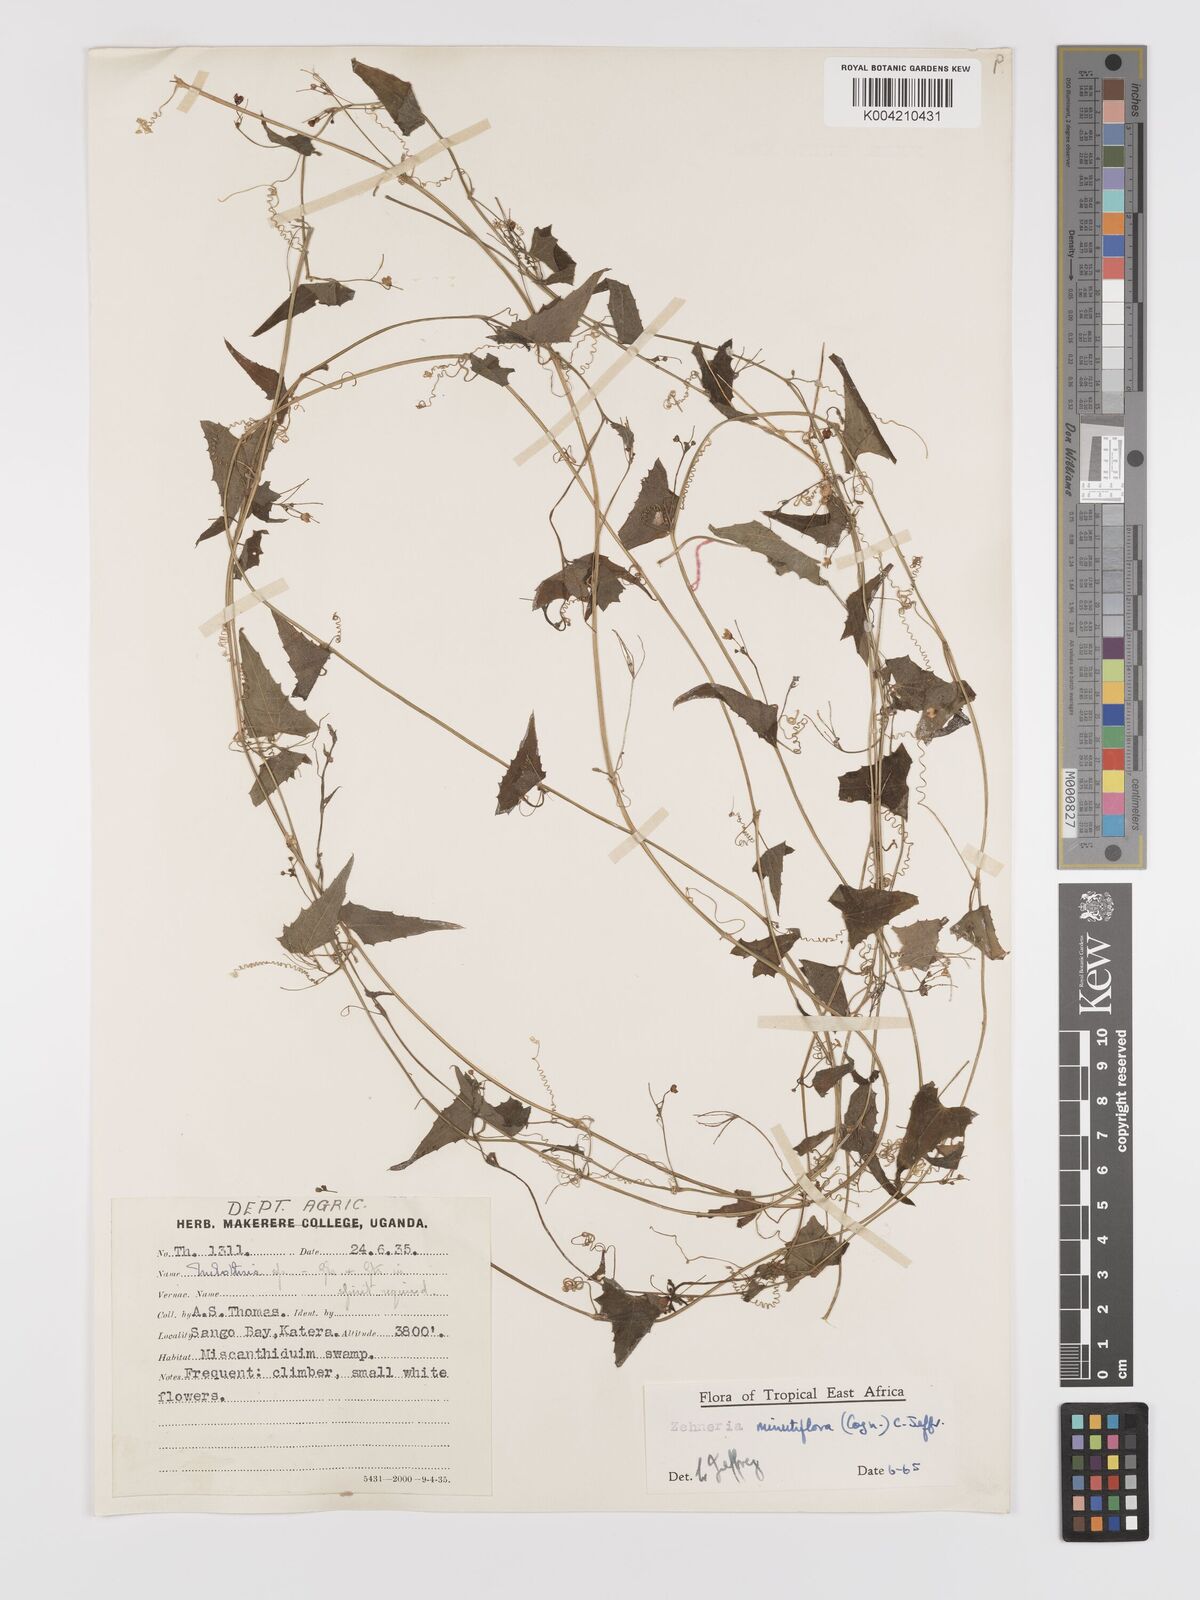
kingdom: Plantae
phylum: Tracheophyta
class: Magnoliopsida
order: Cucurbitales
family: Cucurbitaceae
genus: Zehneria
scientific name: Zehneria minutiflora
